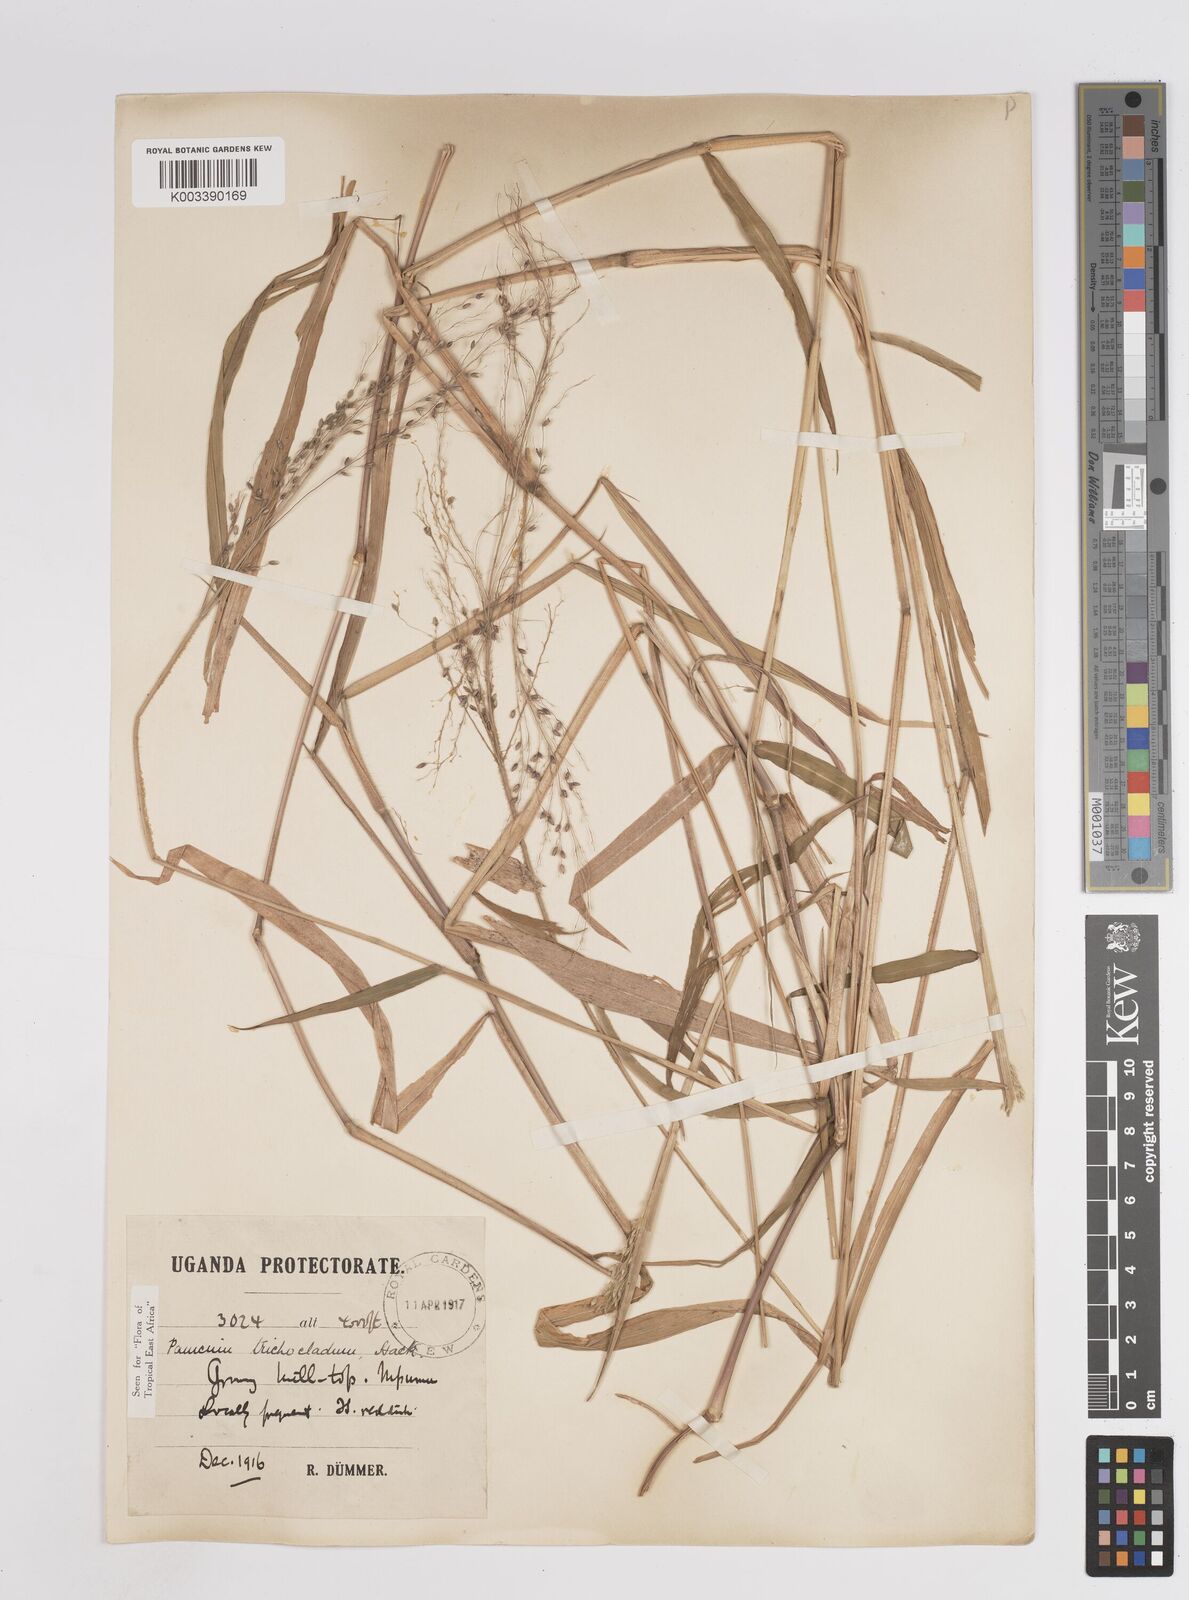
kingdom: Plantae
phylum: Tracheophyta
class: Liliopsida
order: Poales
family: Poaceae
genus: Panicum
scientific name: Panicum trichocladum
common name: Donkey grass
